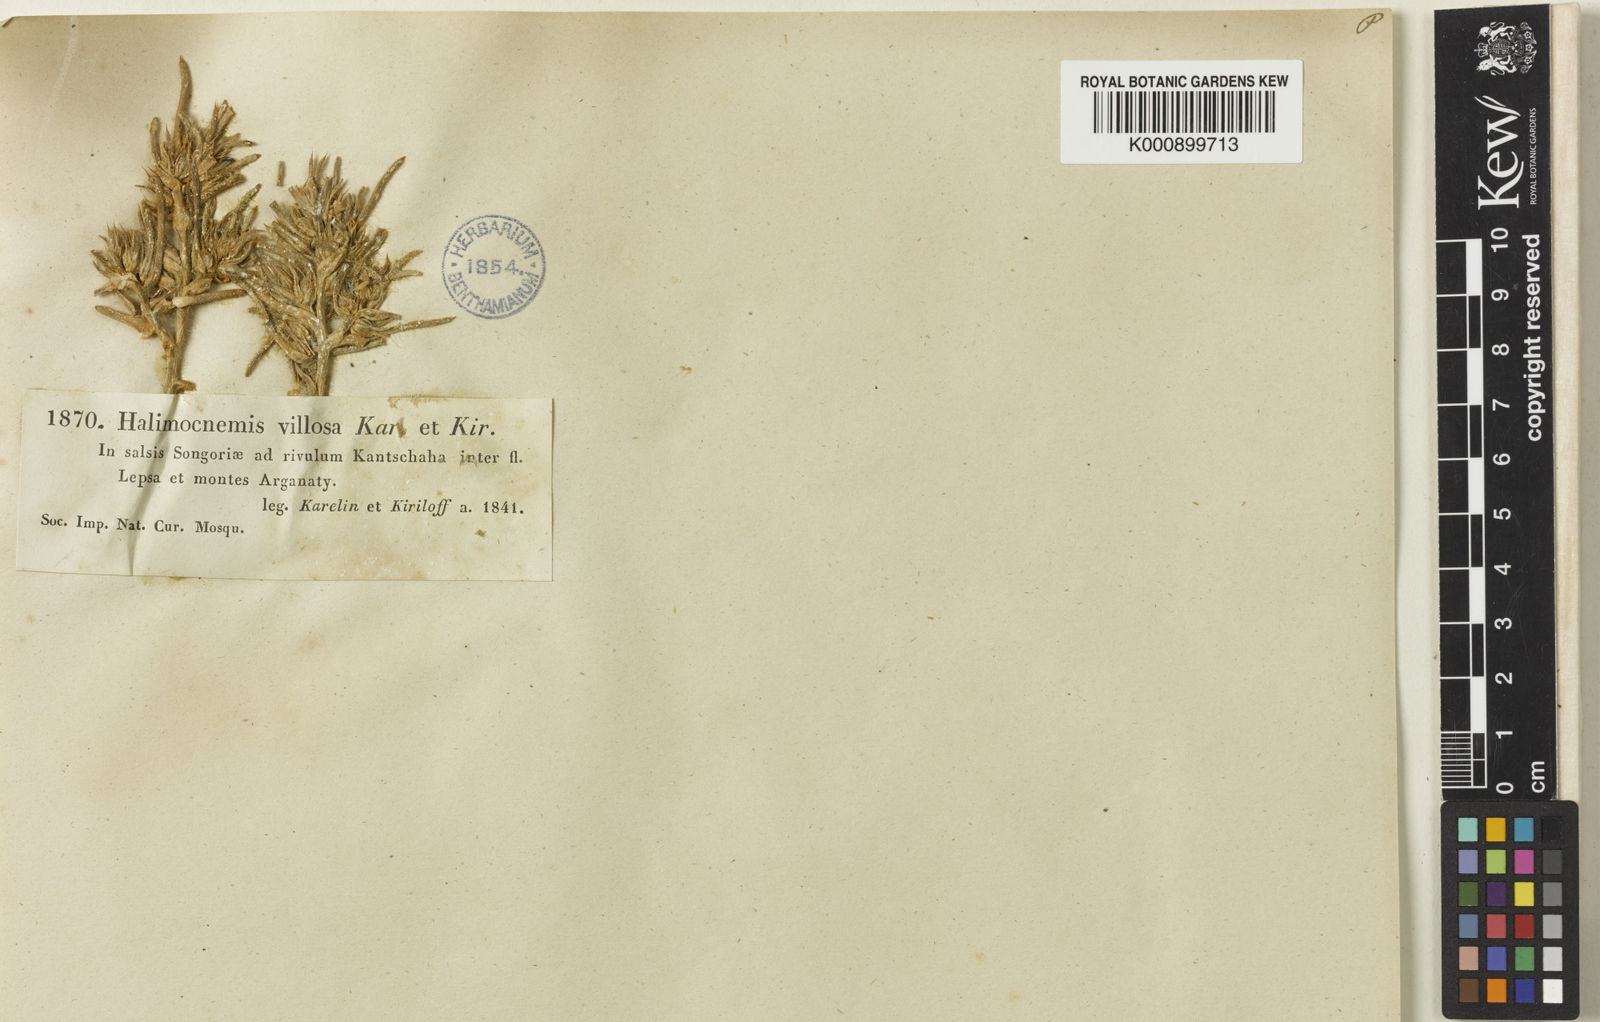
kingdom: Plantae
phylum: Tracheophyta
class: Magnoliopsida
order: Caryophyllales
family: Amaranthaceae
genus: Halimocnemis
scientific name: Halimocnemis villosa
